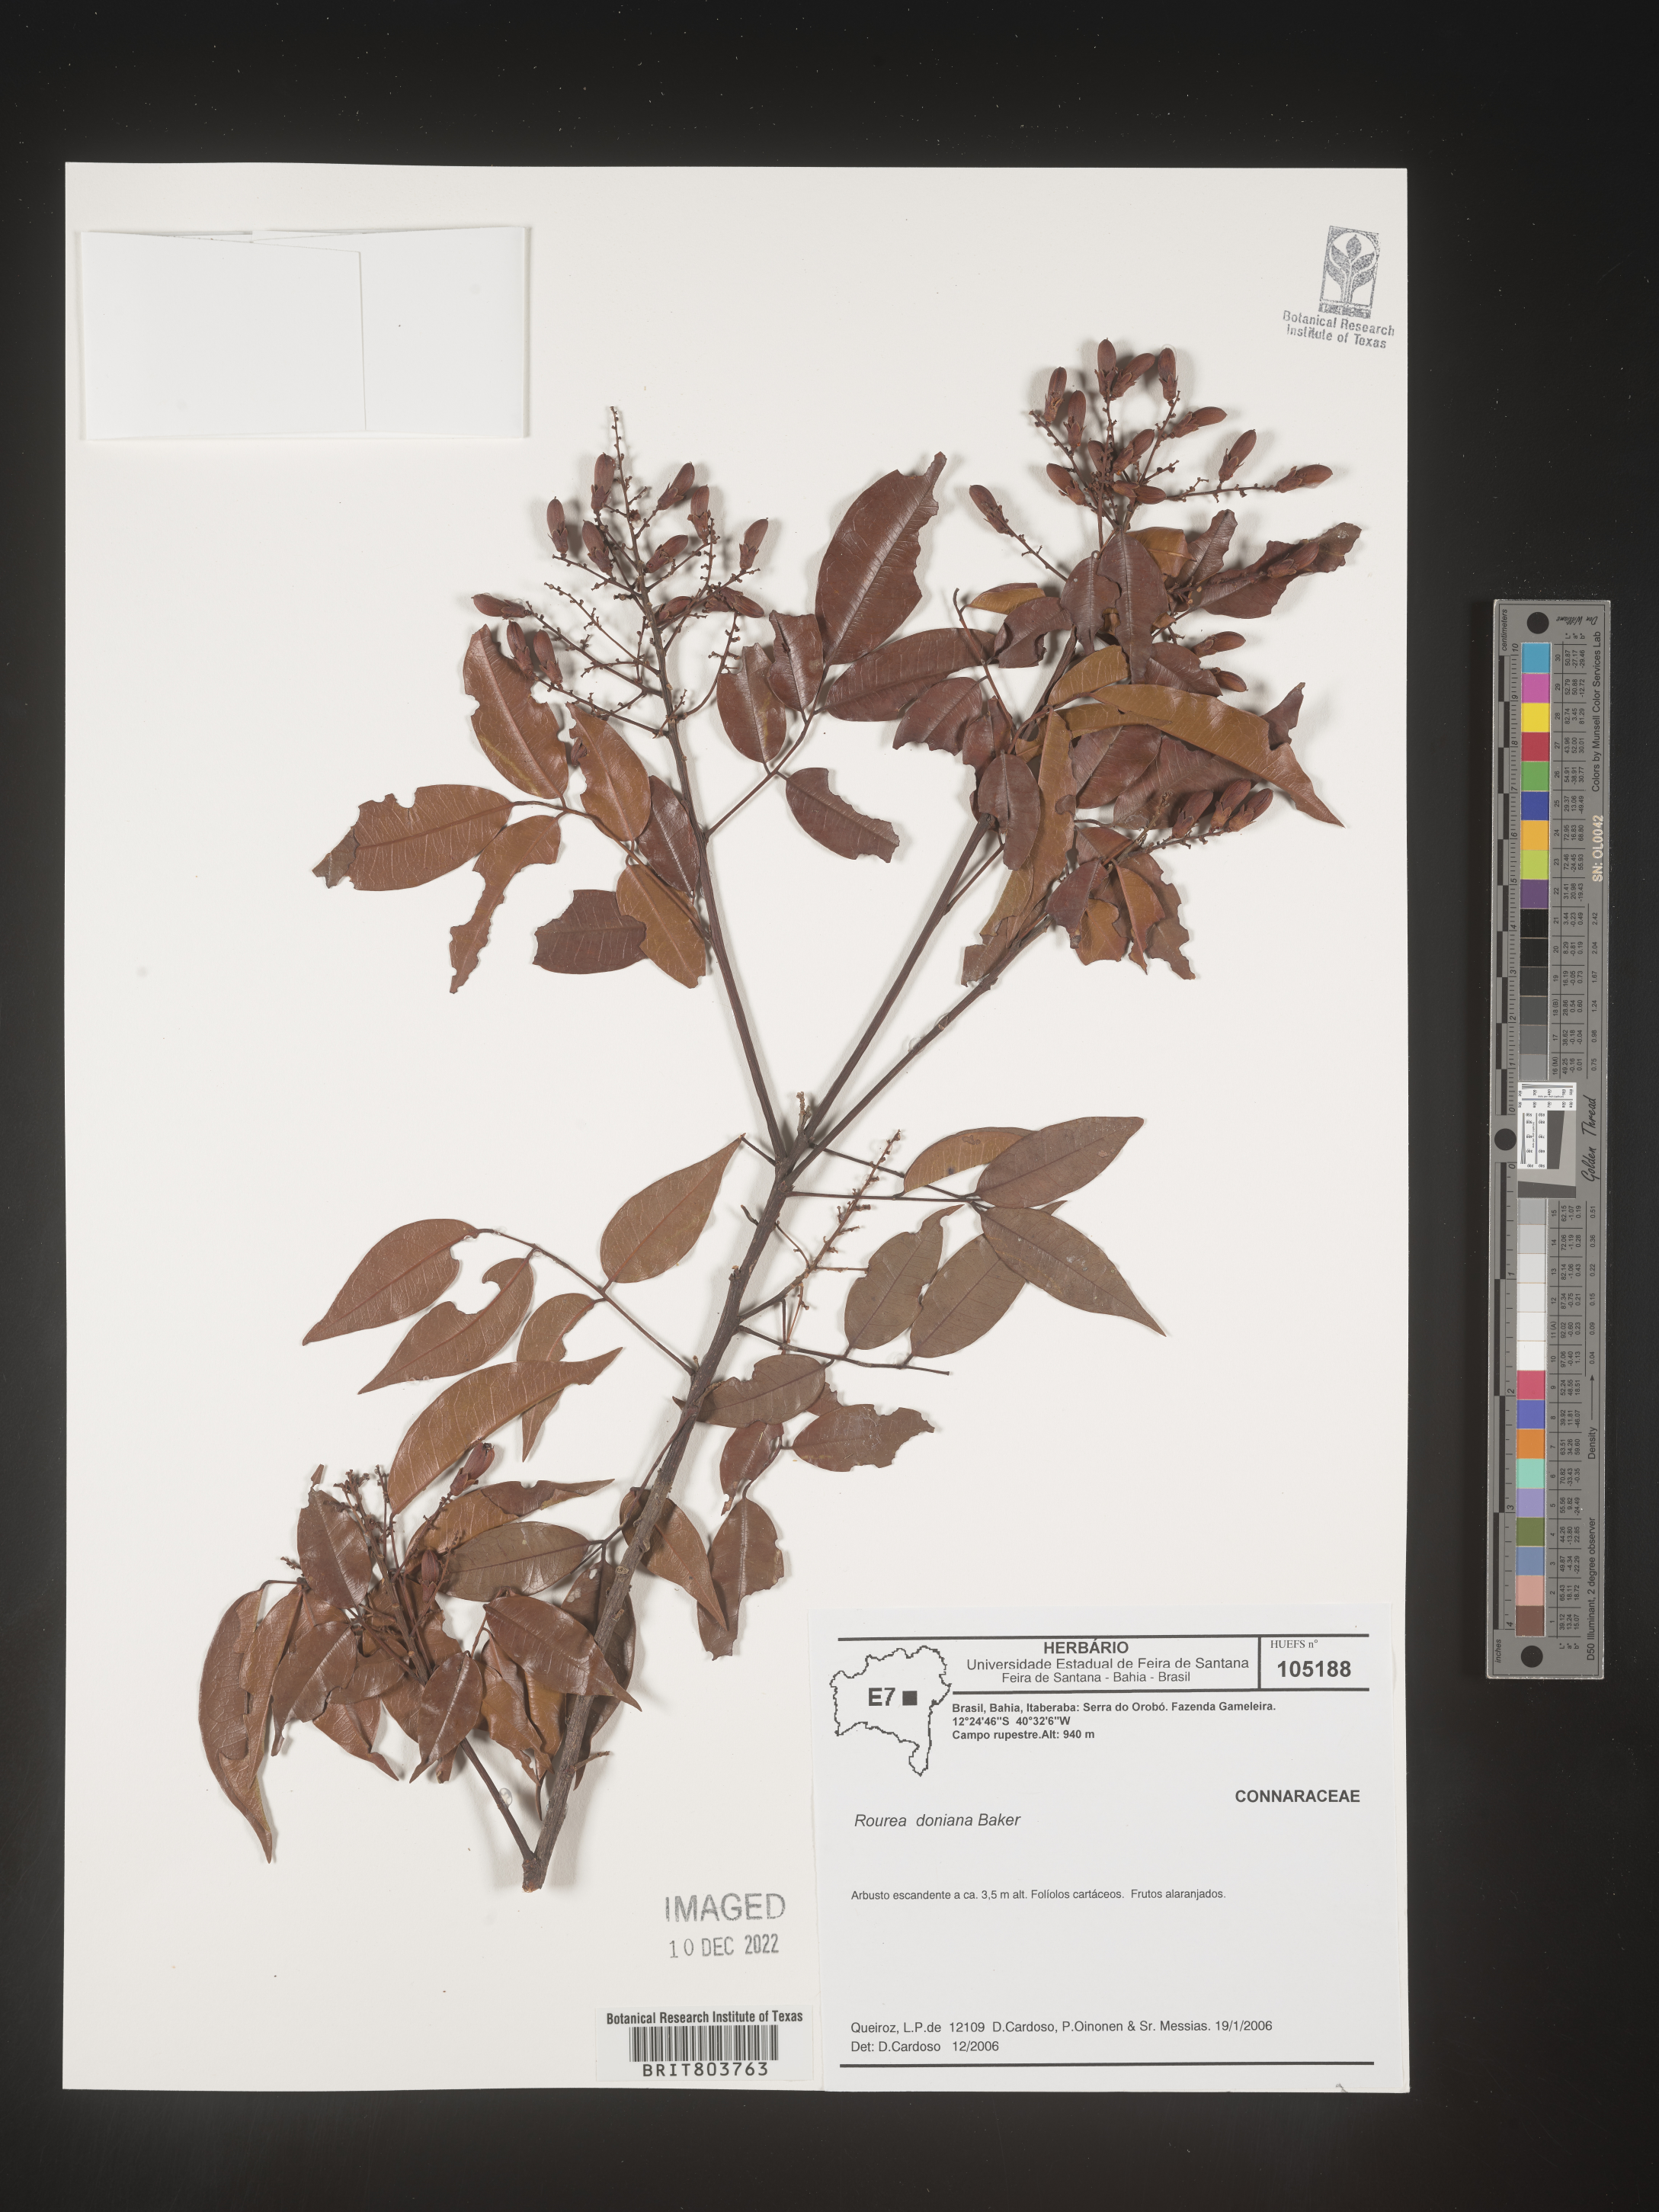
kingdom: Plantae
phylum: Tracheophyta
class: Magnoliopsida
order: Oxalidales
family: Connaraceae
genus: Rourea
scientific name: Rourea
